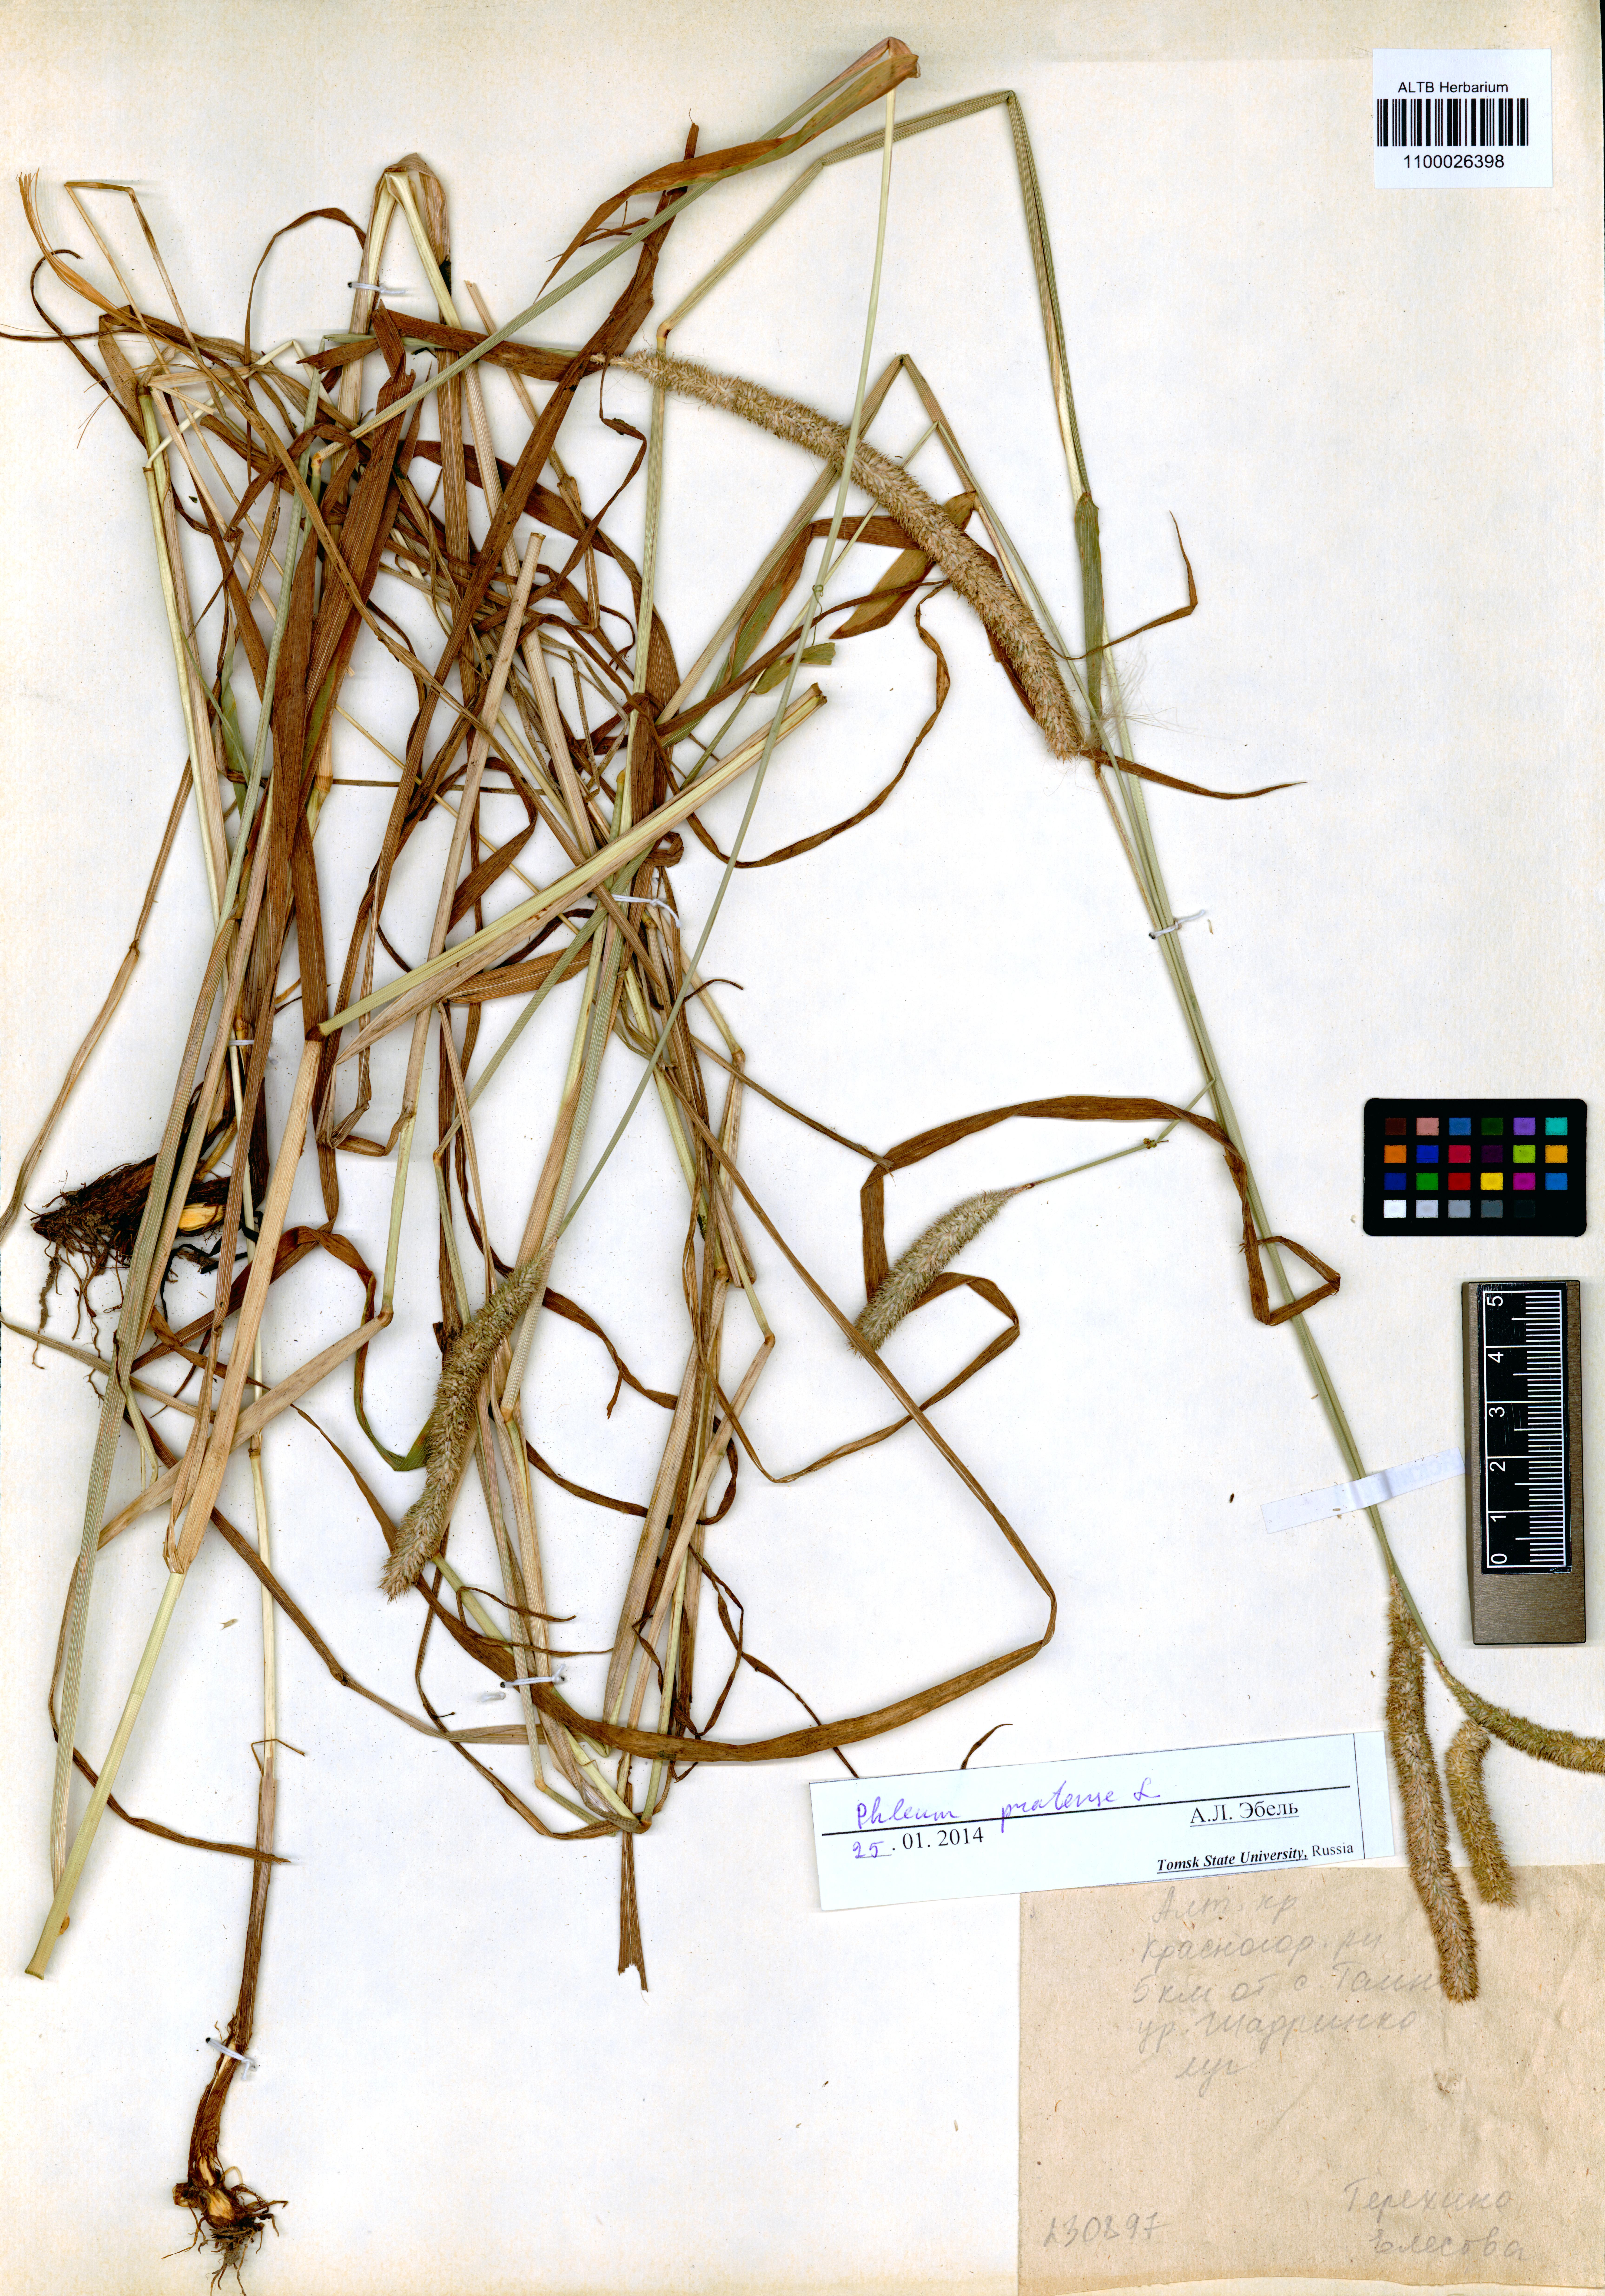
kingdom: Plantae
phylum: Tracheophyta
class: Liliopsida
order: Poales
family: Poaceae
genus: Phleum
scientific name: Phleum pratense
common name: Timothy grass
